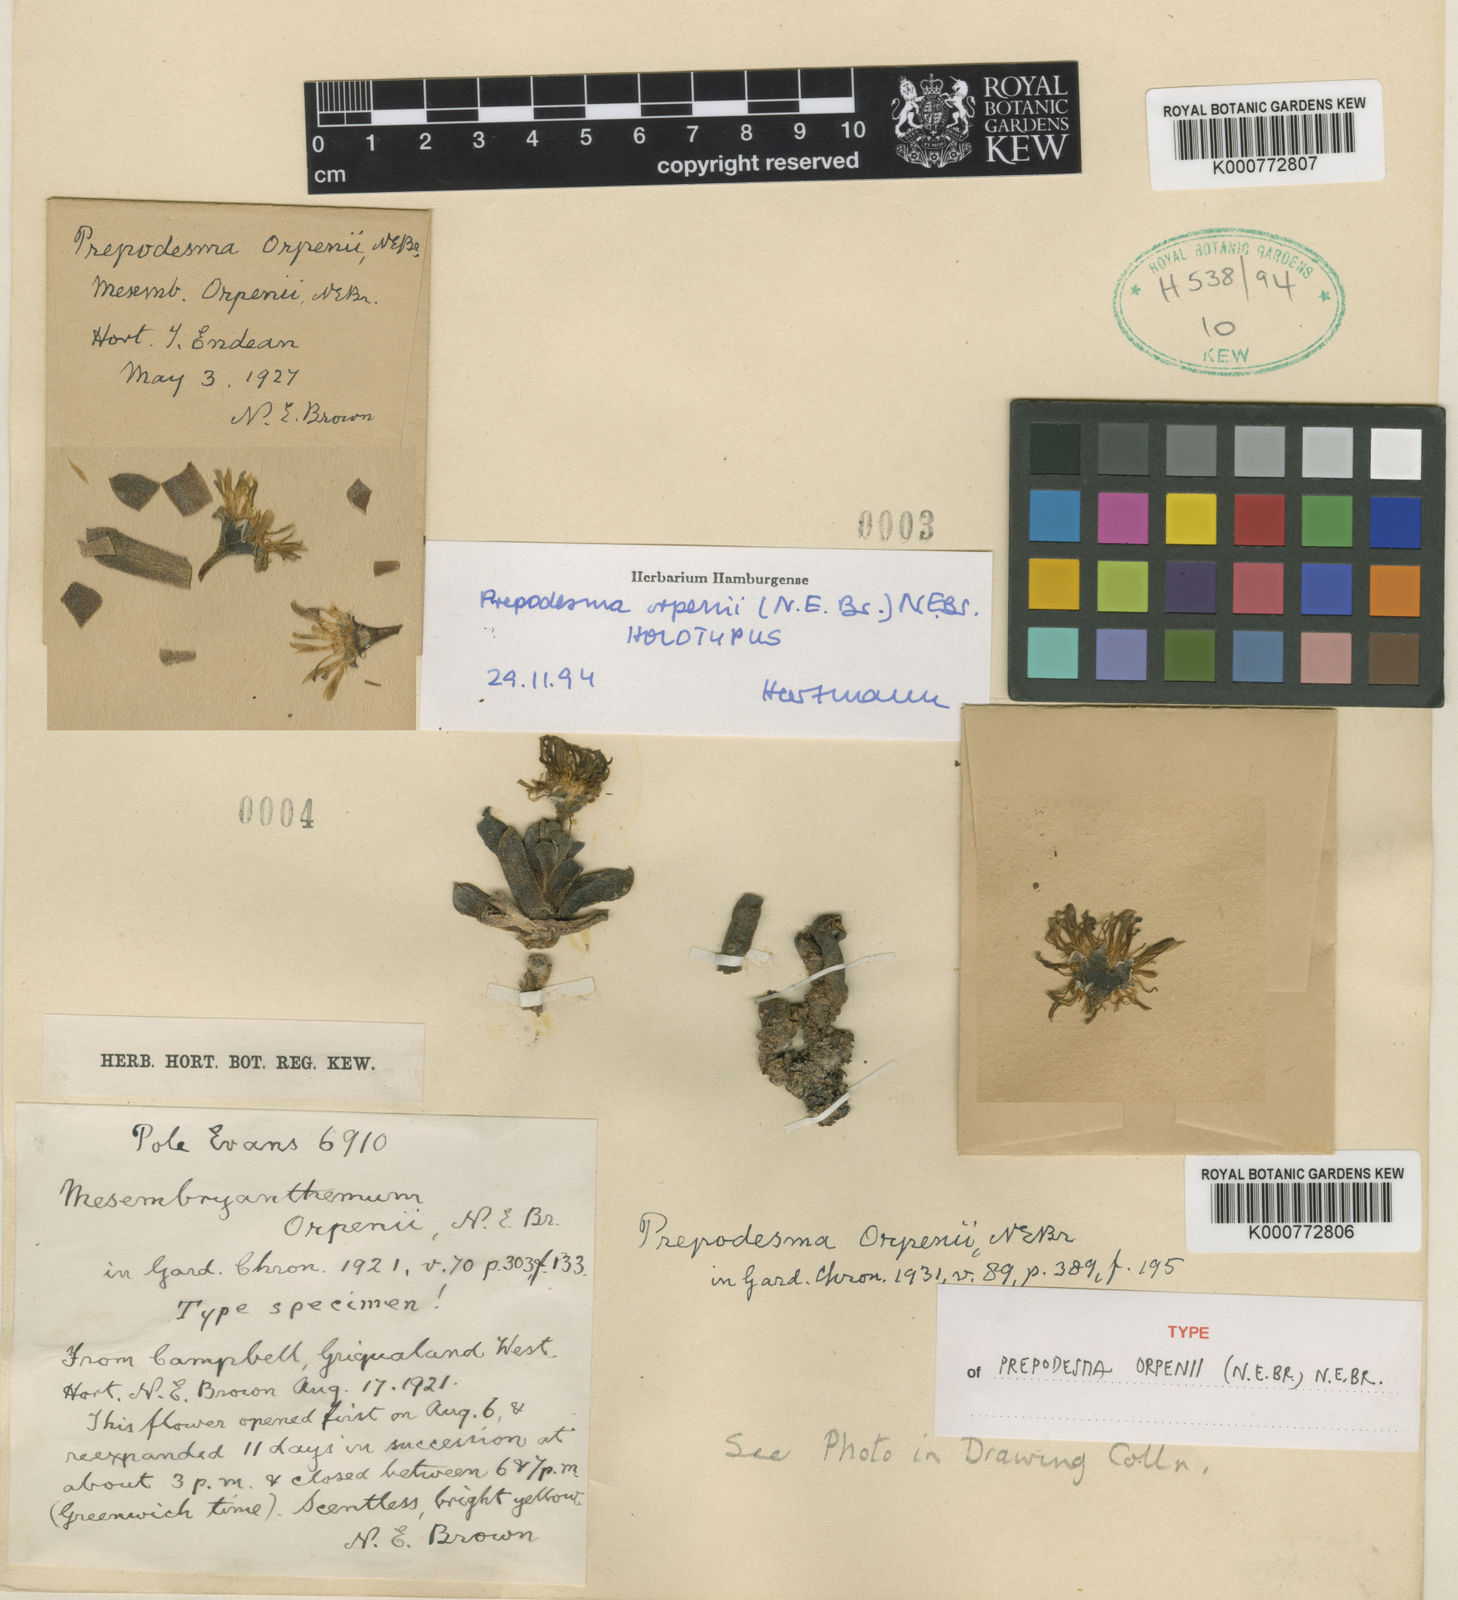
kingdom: Plantae
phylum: Tracheophyta
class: Magnoliopsida
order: Caryophyllales
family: Aizoaceae
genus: Prepodesma
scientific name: Prepodesma orpenii
